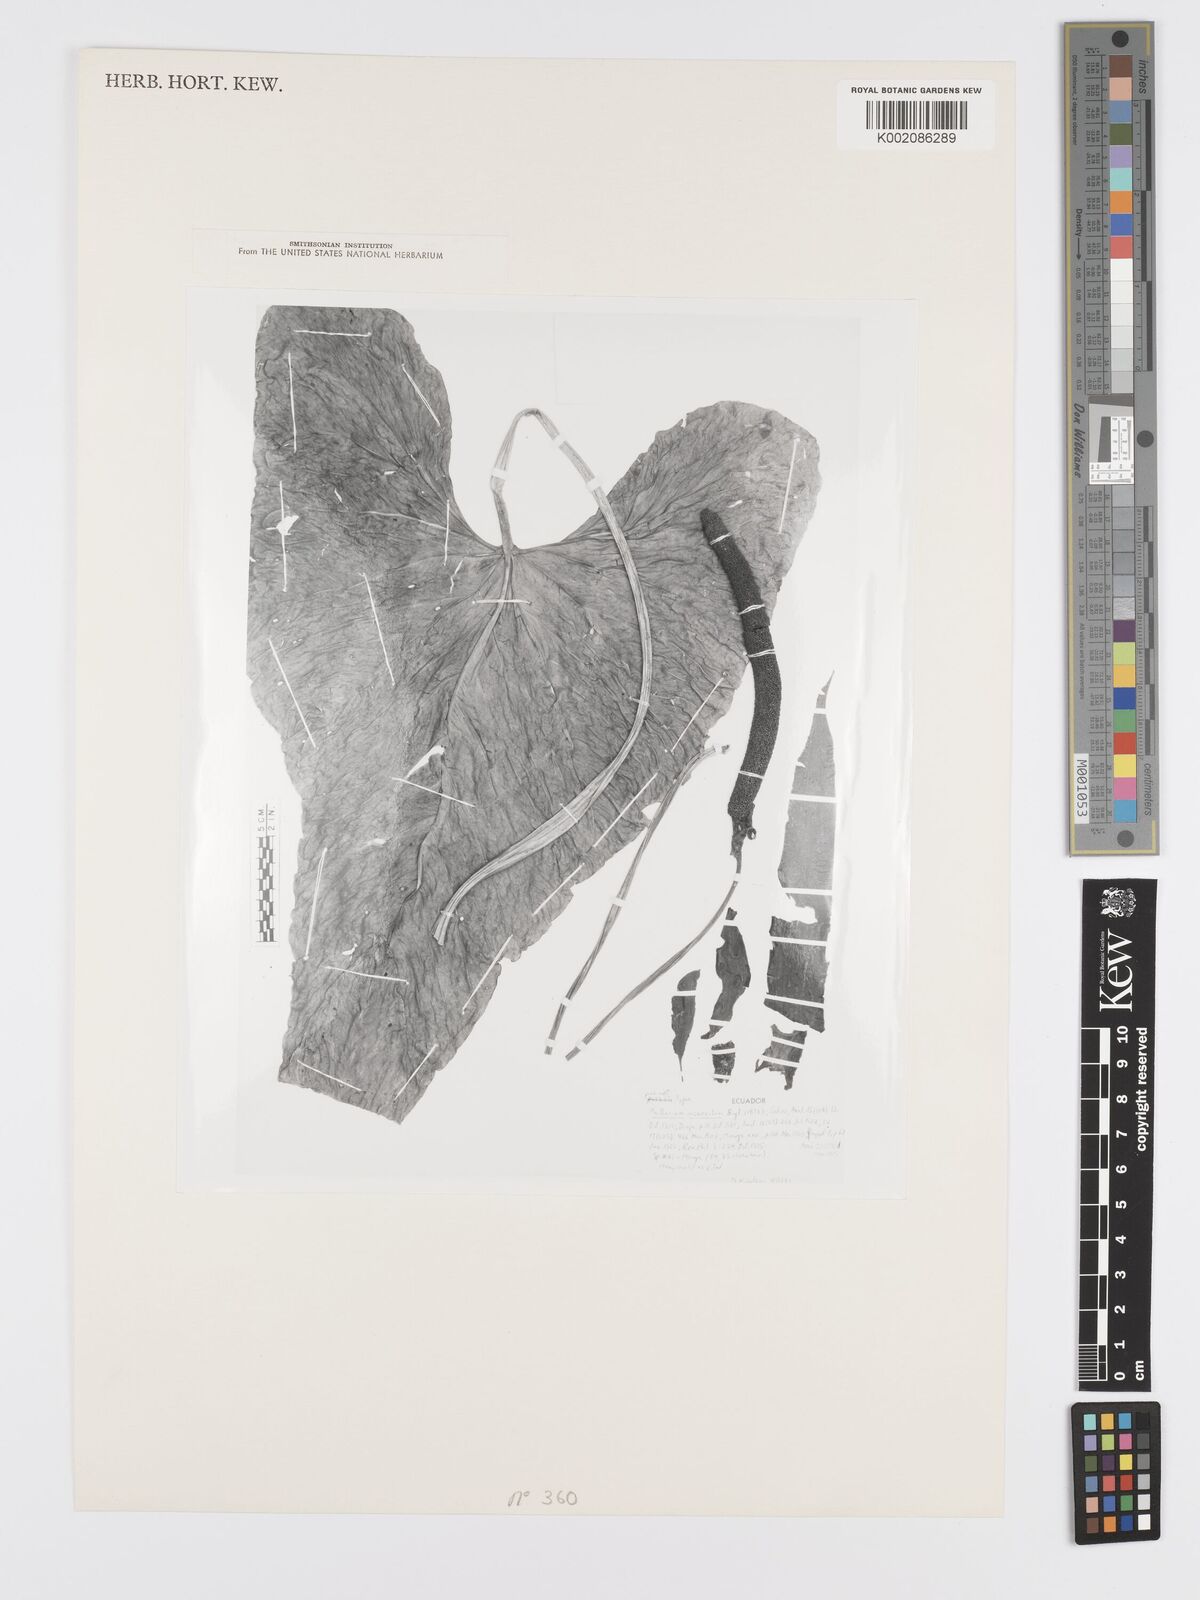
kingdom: Plantae
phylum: Tracheophyta
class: Liliopsida
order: Alismatales
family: Araceae
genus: Anthurium
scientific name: Anthurium incurvatum
